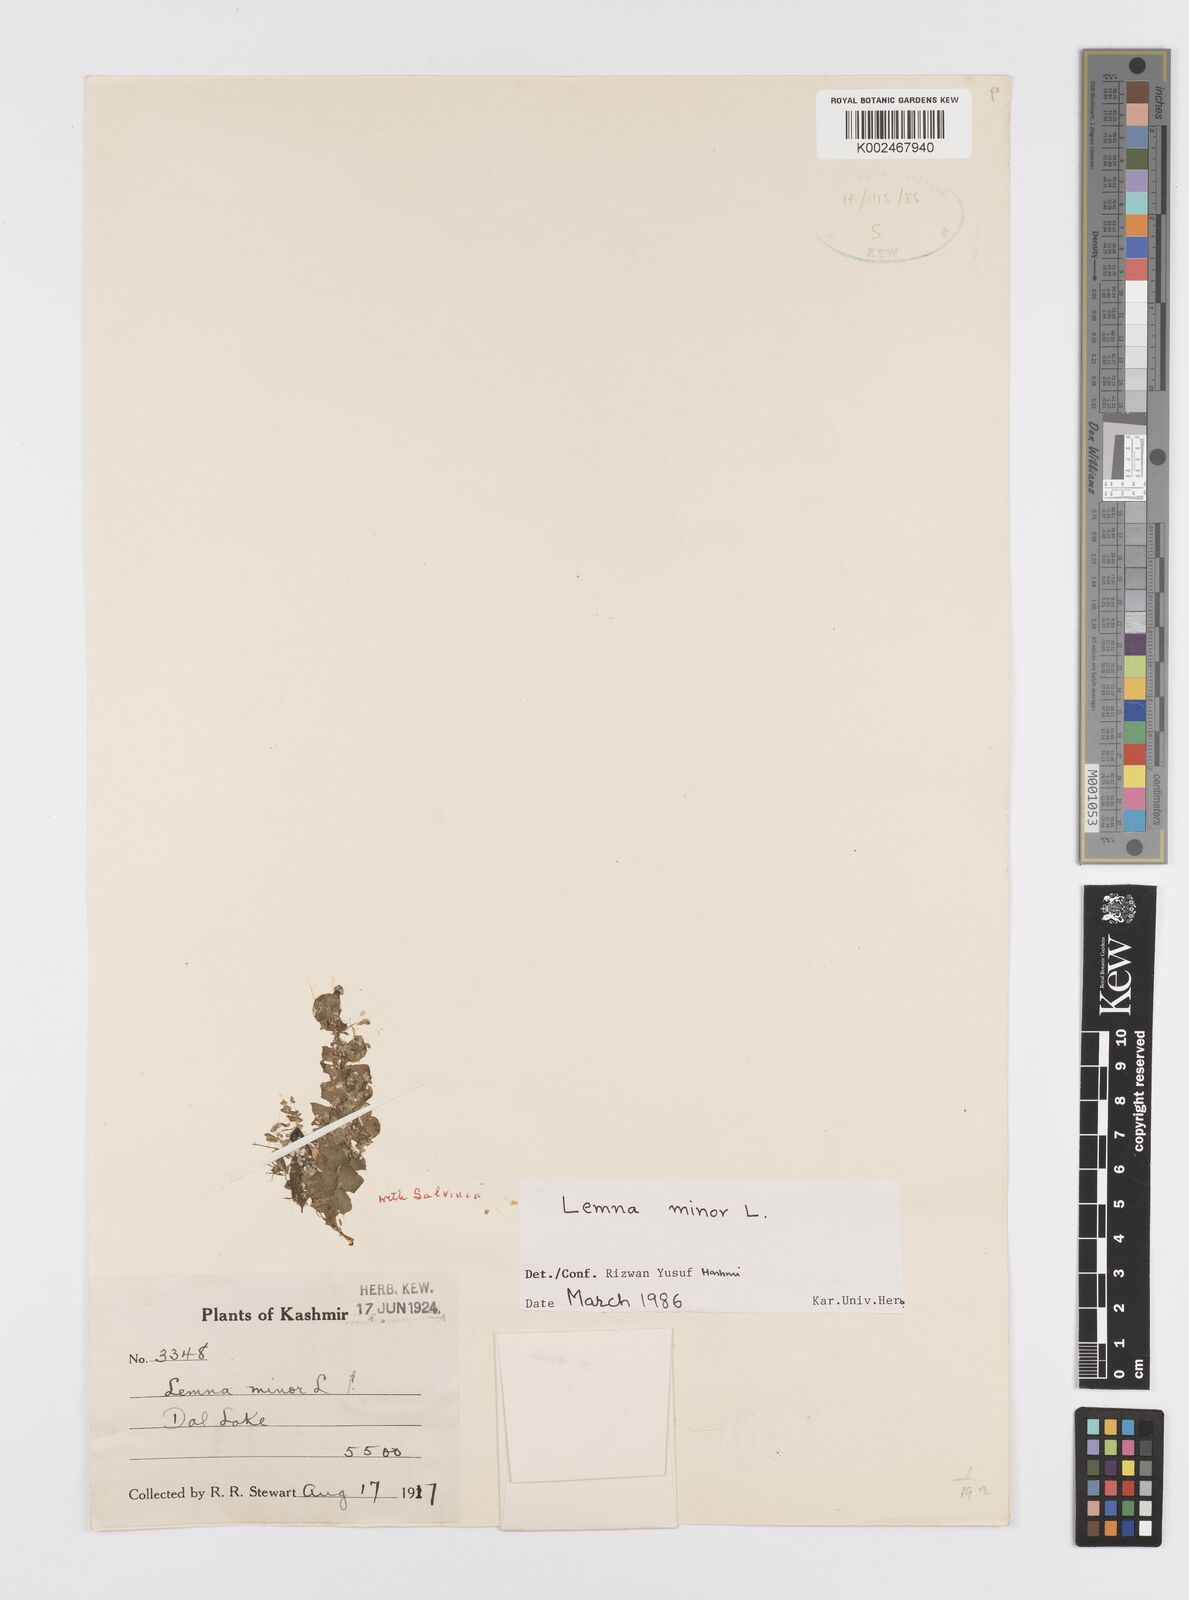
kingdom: Plantae
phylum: Tracheophyta
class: Liliopsida
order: Alismatales
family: Araceae
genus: Lemna
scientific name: Lemna minor
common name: Common duckweed
